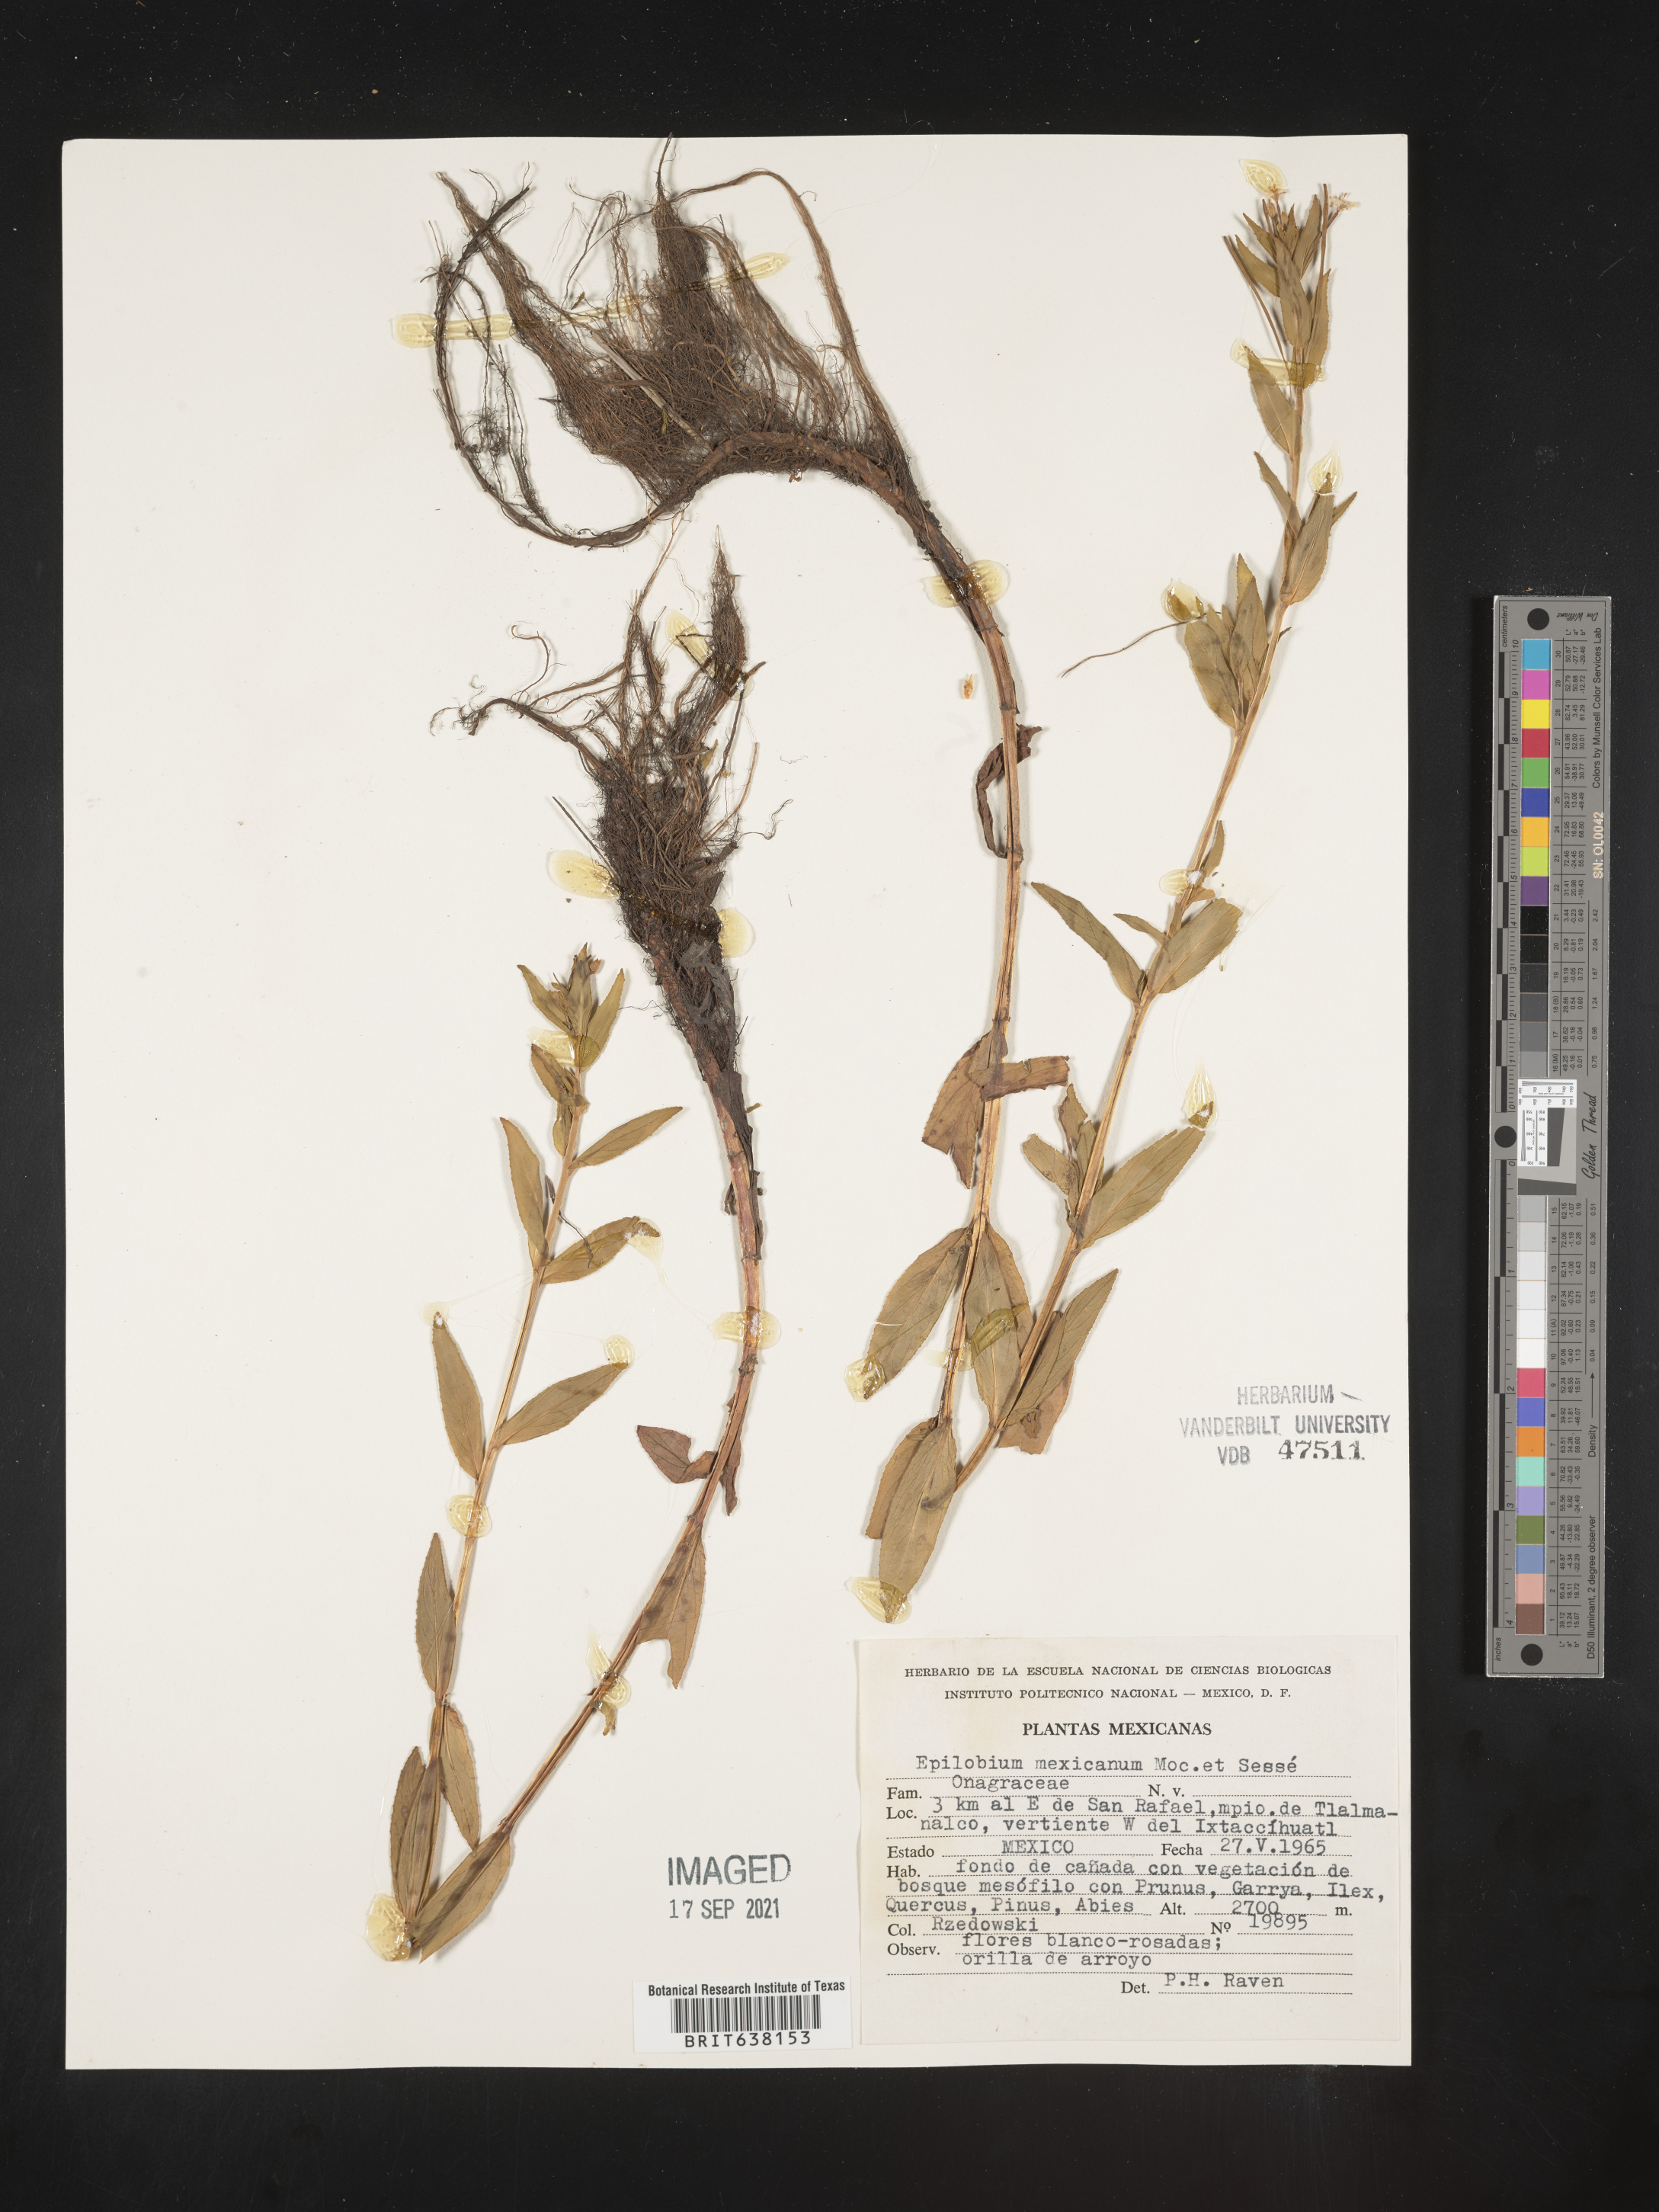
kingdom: Plantae
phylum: Tracheophyta
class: Magnoliopsida
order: Myrtales
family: Onagraceae
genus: Epilobium
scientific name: Epilobium
